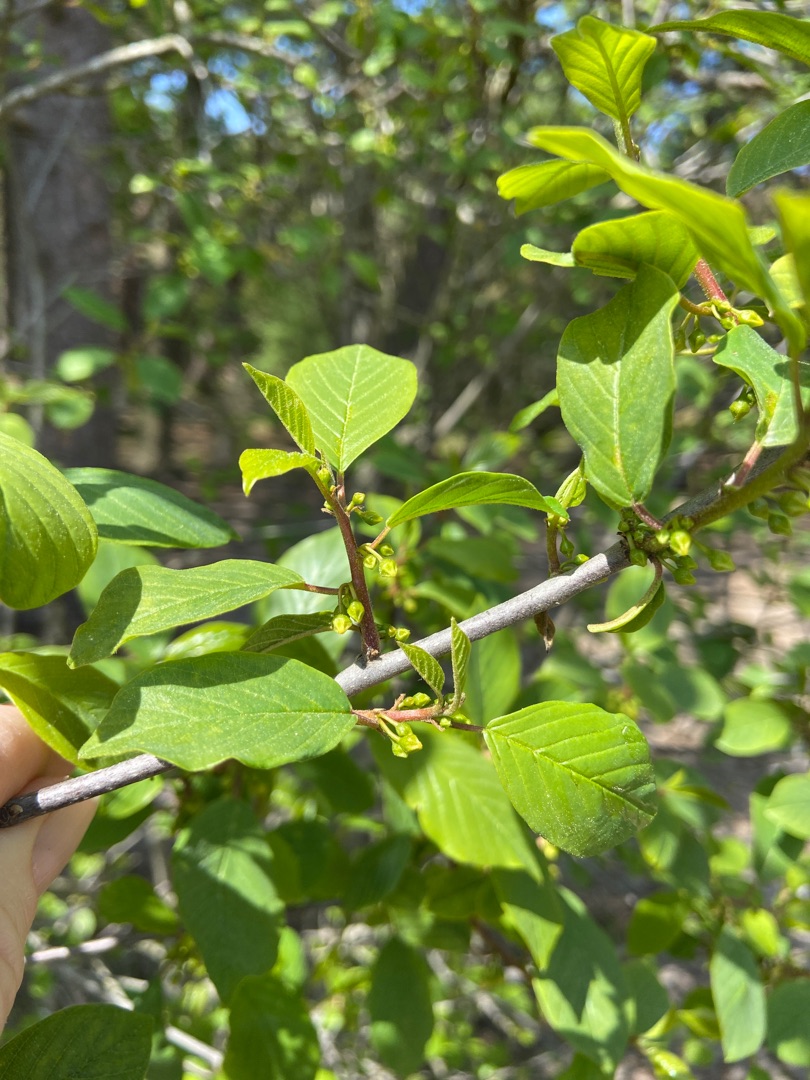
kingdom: Plantae
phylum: Tracheophyta
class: Magnoliopsida
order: Rosales
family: Rhamnaceae
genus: Frangula
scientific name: Frangula alnus
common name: Tørst
